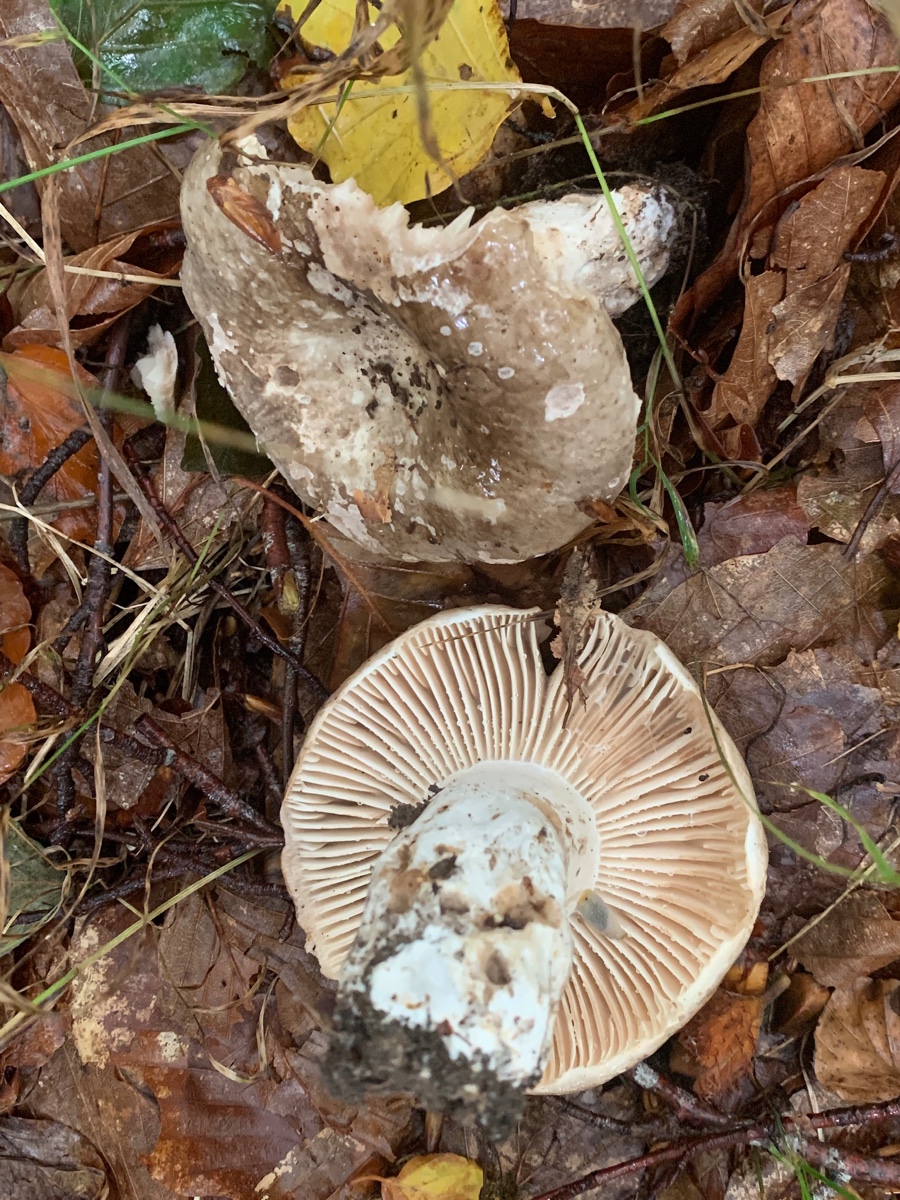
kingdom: Fungi
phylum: Basidiomycota
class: Agaricomycetes
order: Russulales
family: Russulaceae
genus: Russula
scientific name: Russula adusta
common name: sværtende skørhat
